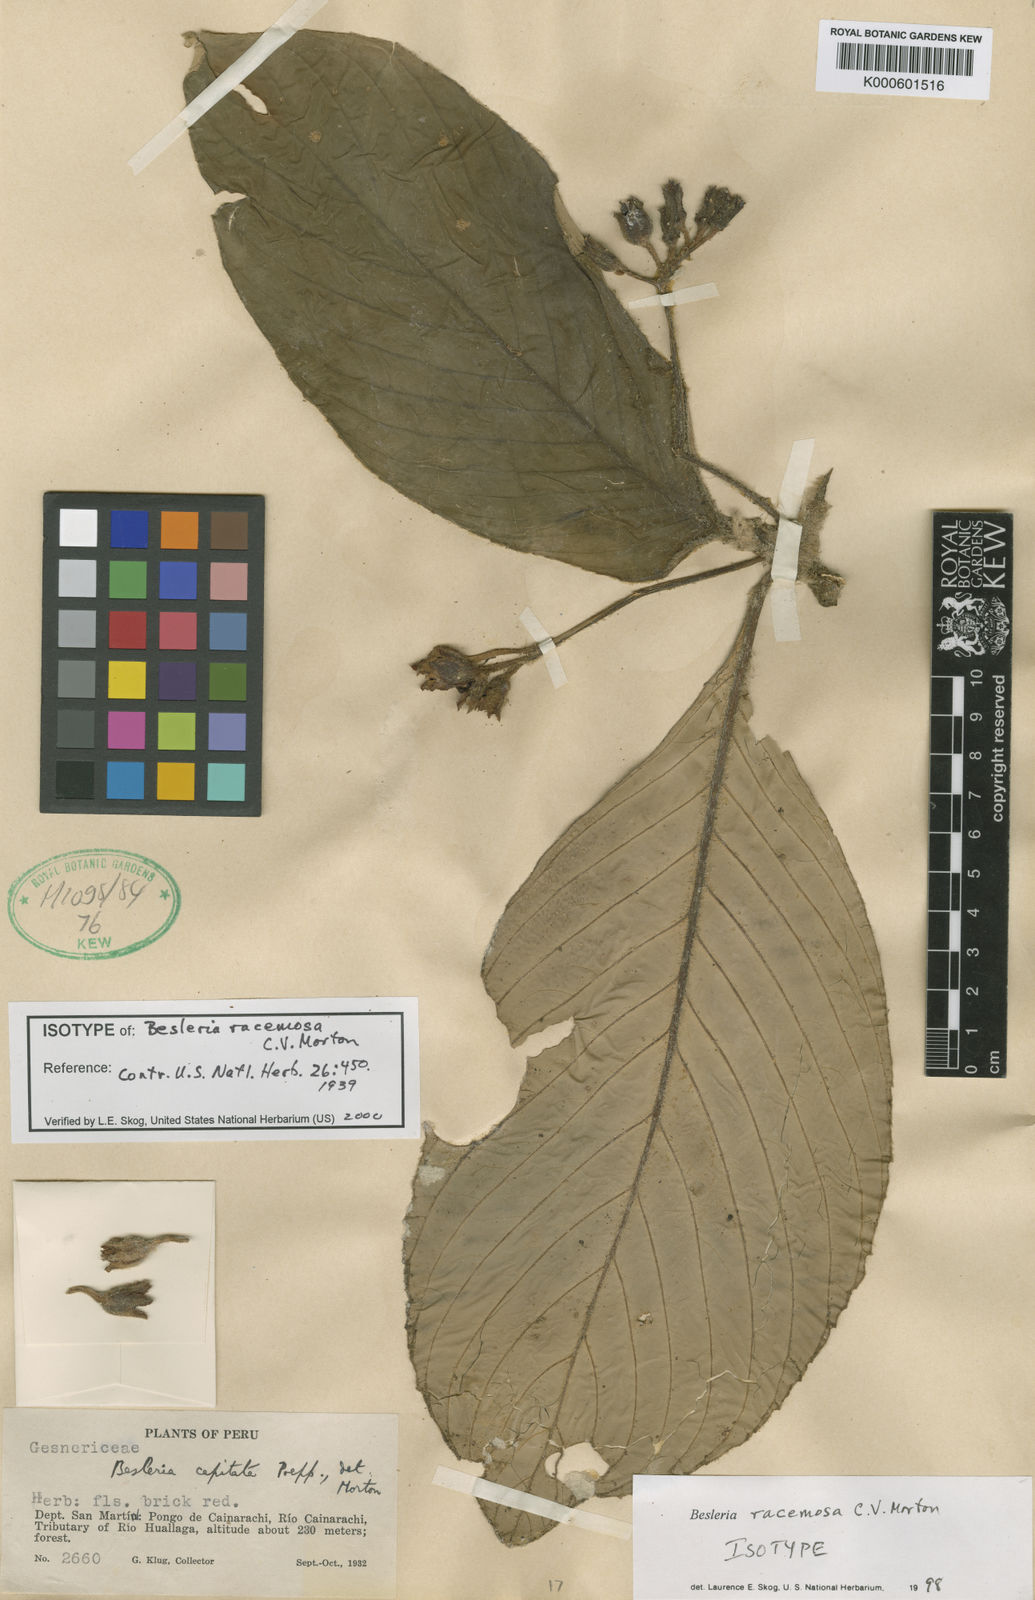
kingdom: Plantae
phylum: Tracheophyta
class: Magnoliopsida
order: Lamiales
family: Gesneriaceae
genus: Besleria
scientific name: Besleria racemosa
